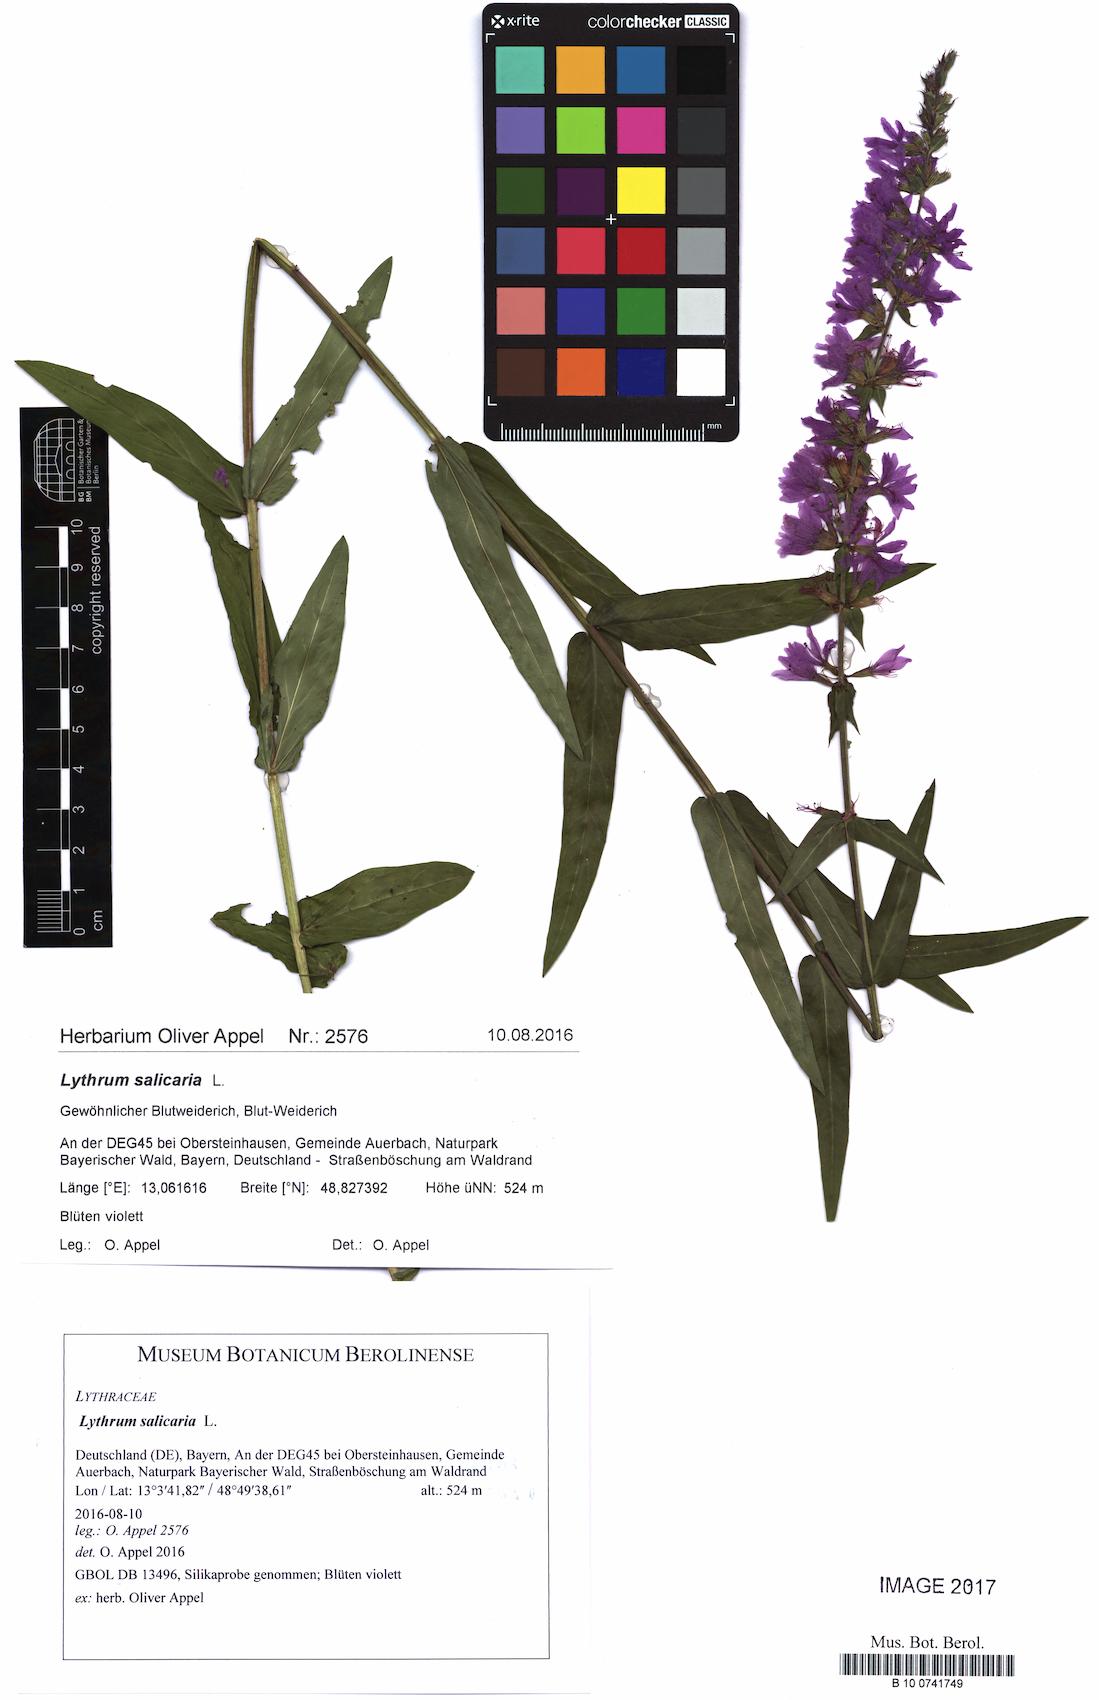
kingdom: Plantae
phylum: Tracheophyta
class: Magnoliopsida
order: Myrtales
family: Lythraceae
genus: Lythrum
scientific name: Lythrum salicaria
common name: Purple loosestrife
